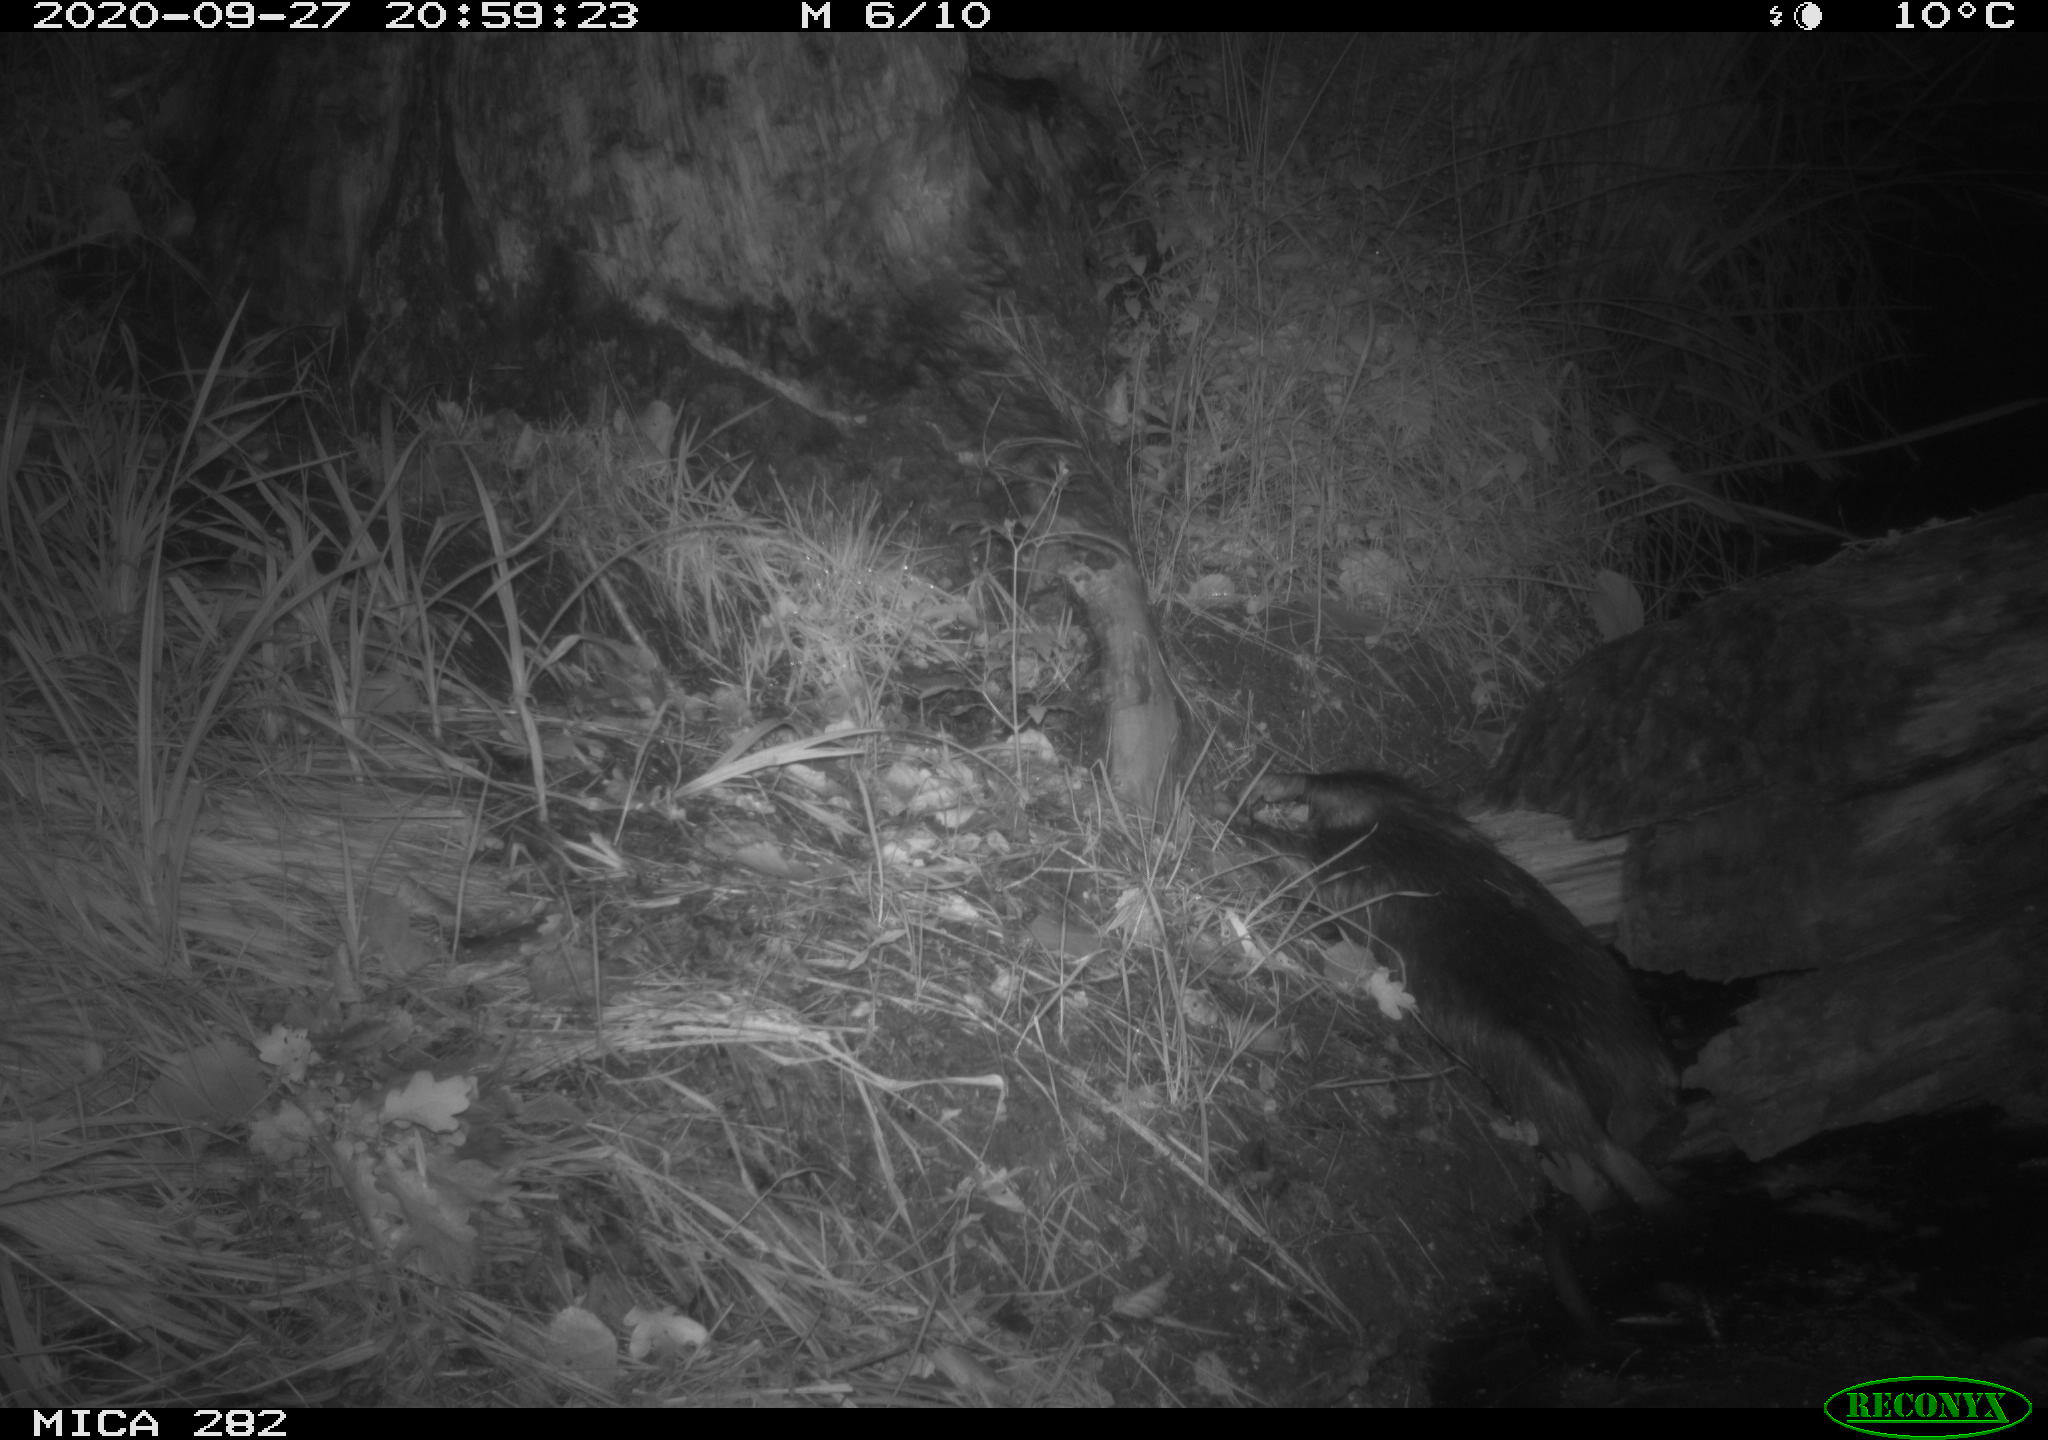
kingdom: Animalia
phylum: Chordata
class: Mammalia
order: Soricomorpha
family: Soricidae
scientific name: Soricidae
